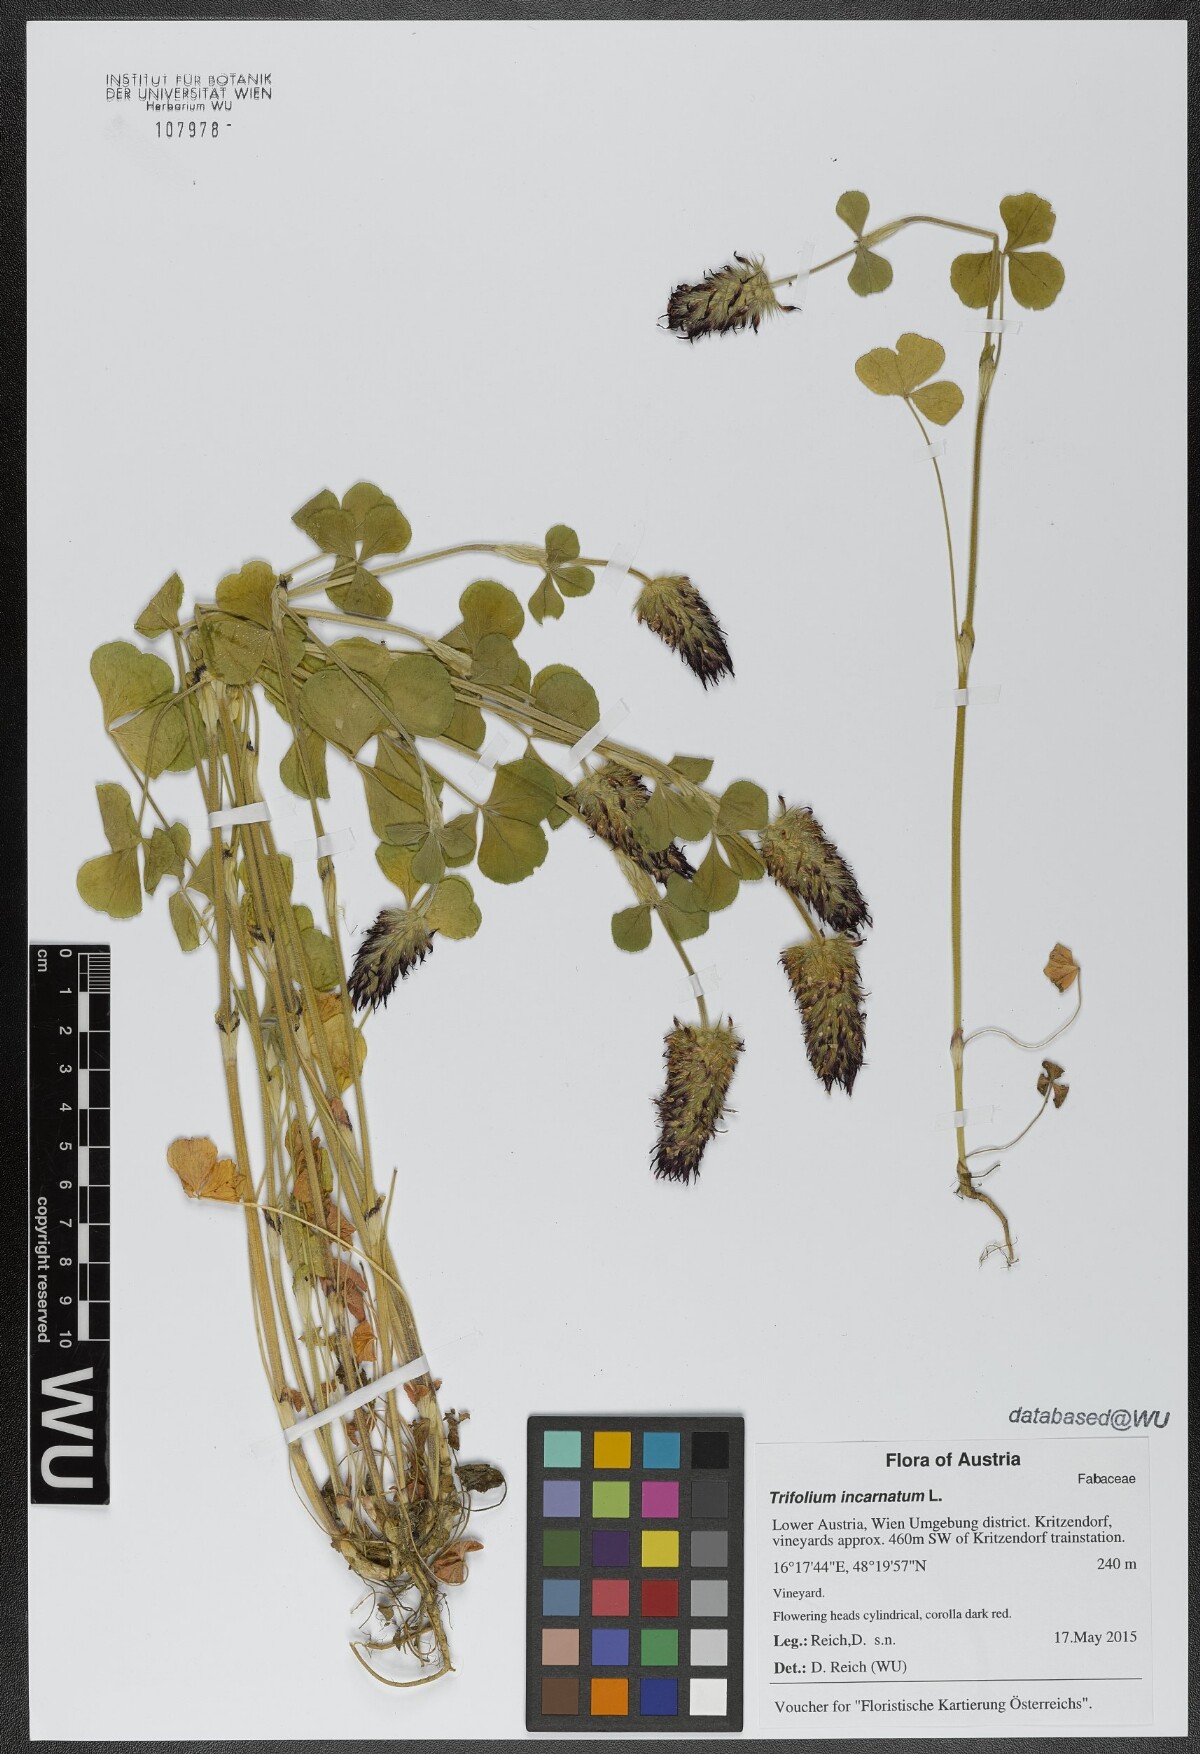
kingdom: Plantae
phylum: Tracheophyta
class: Magnoliopsida
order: Fabales
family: Fabaceae
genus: Trifolium
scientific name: Trifolium incarnatum
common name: Crimson clover
